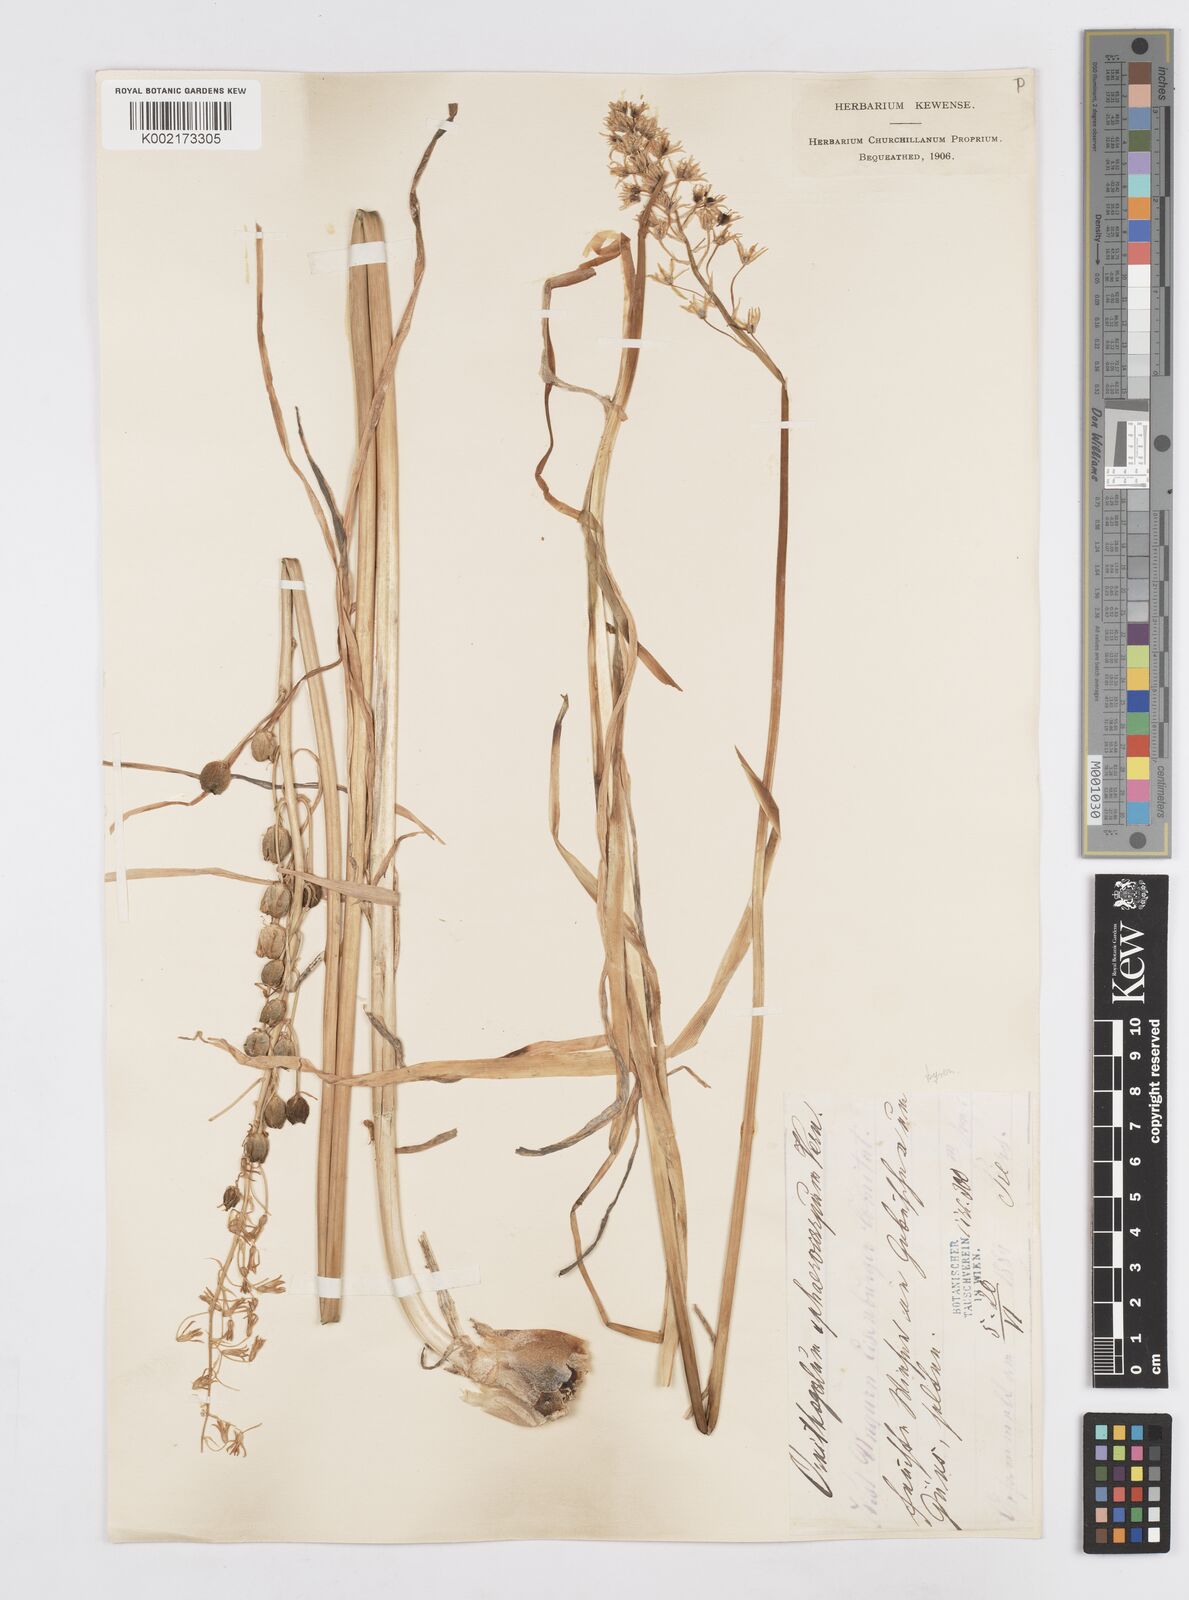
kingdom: Plantae
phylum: Tracheophyta
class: Liliopsida
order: Asparagales
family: Asparagaceae
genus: Ornithogalum
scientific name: Ornithogalum sphaerocarpum
